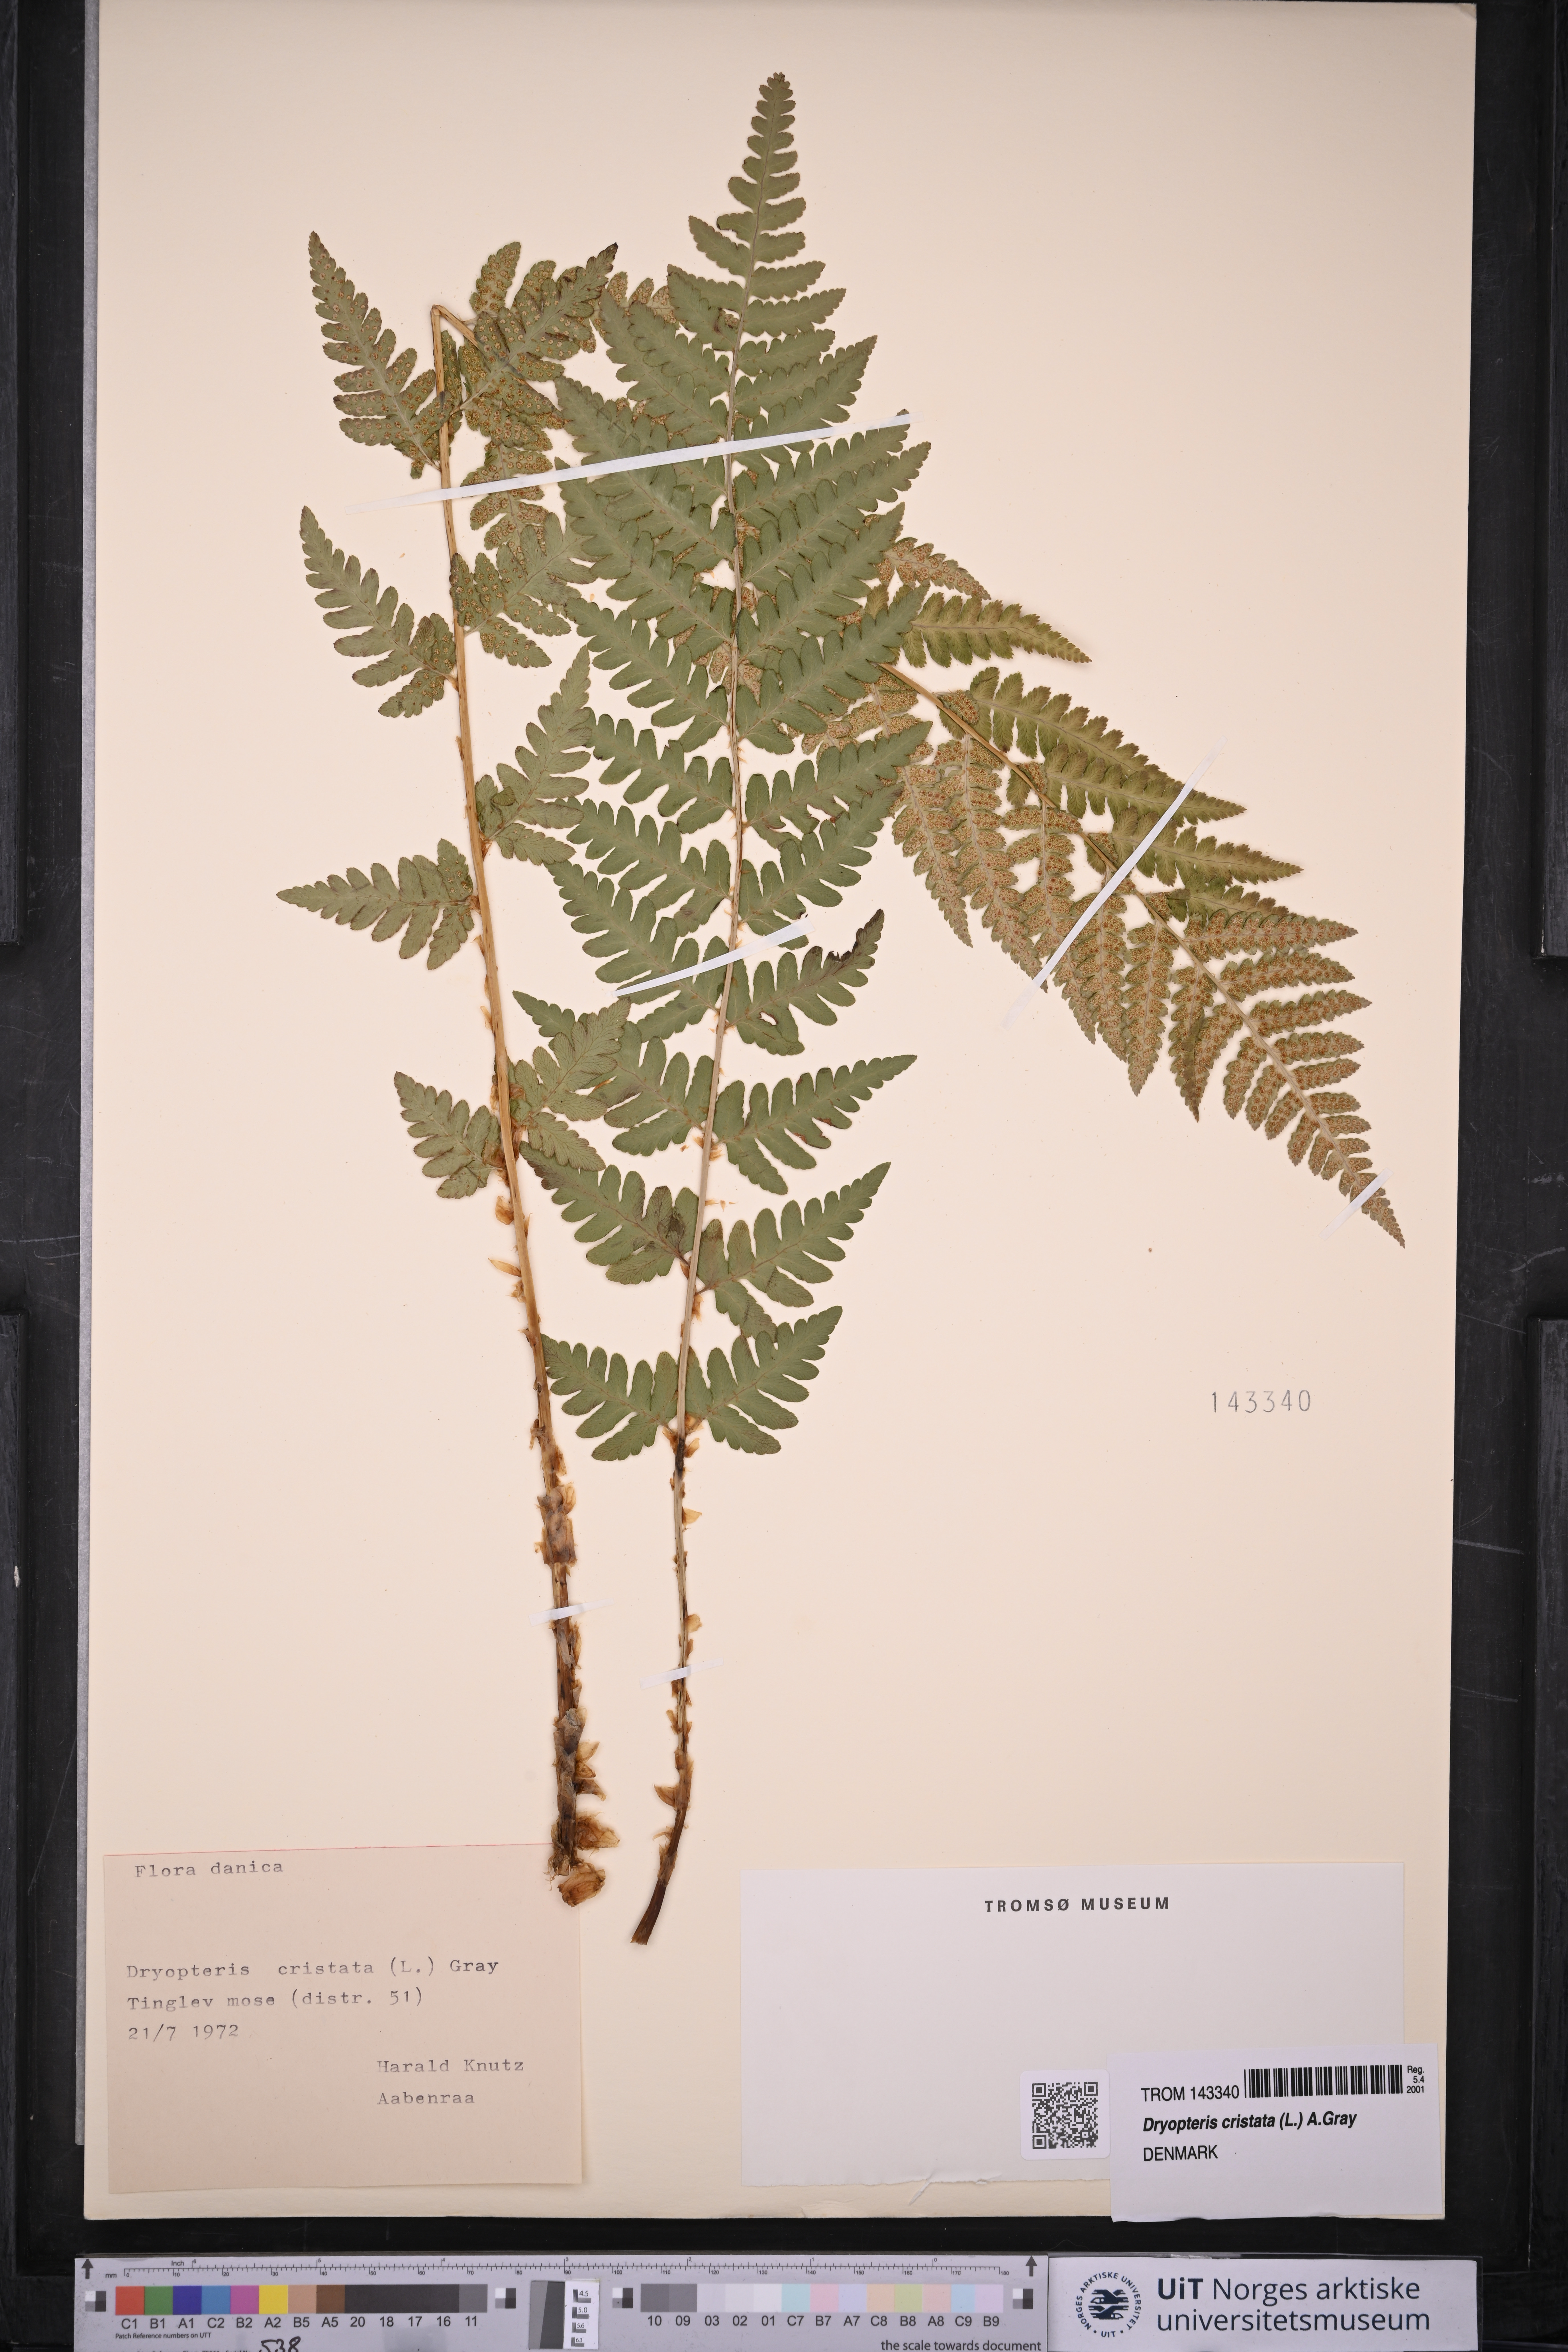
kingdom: Plantae
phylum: Tracheophyta
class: Polypodiopsida
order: Polypodiales
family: Dryopteridaceae
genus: Dryopteris
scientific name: Dryopteris cristata
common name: Crested wood fern
